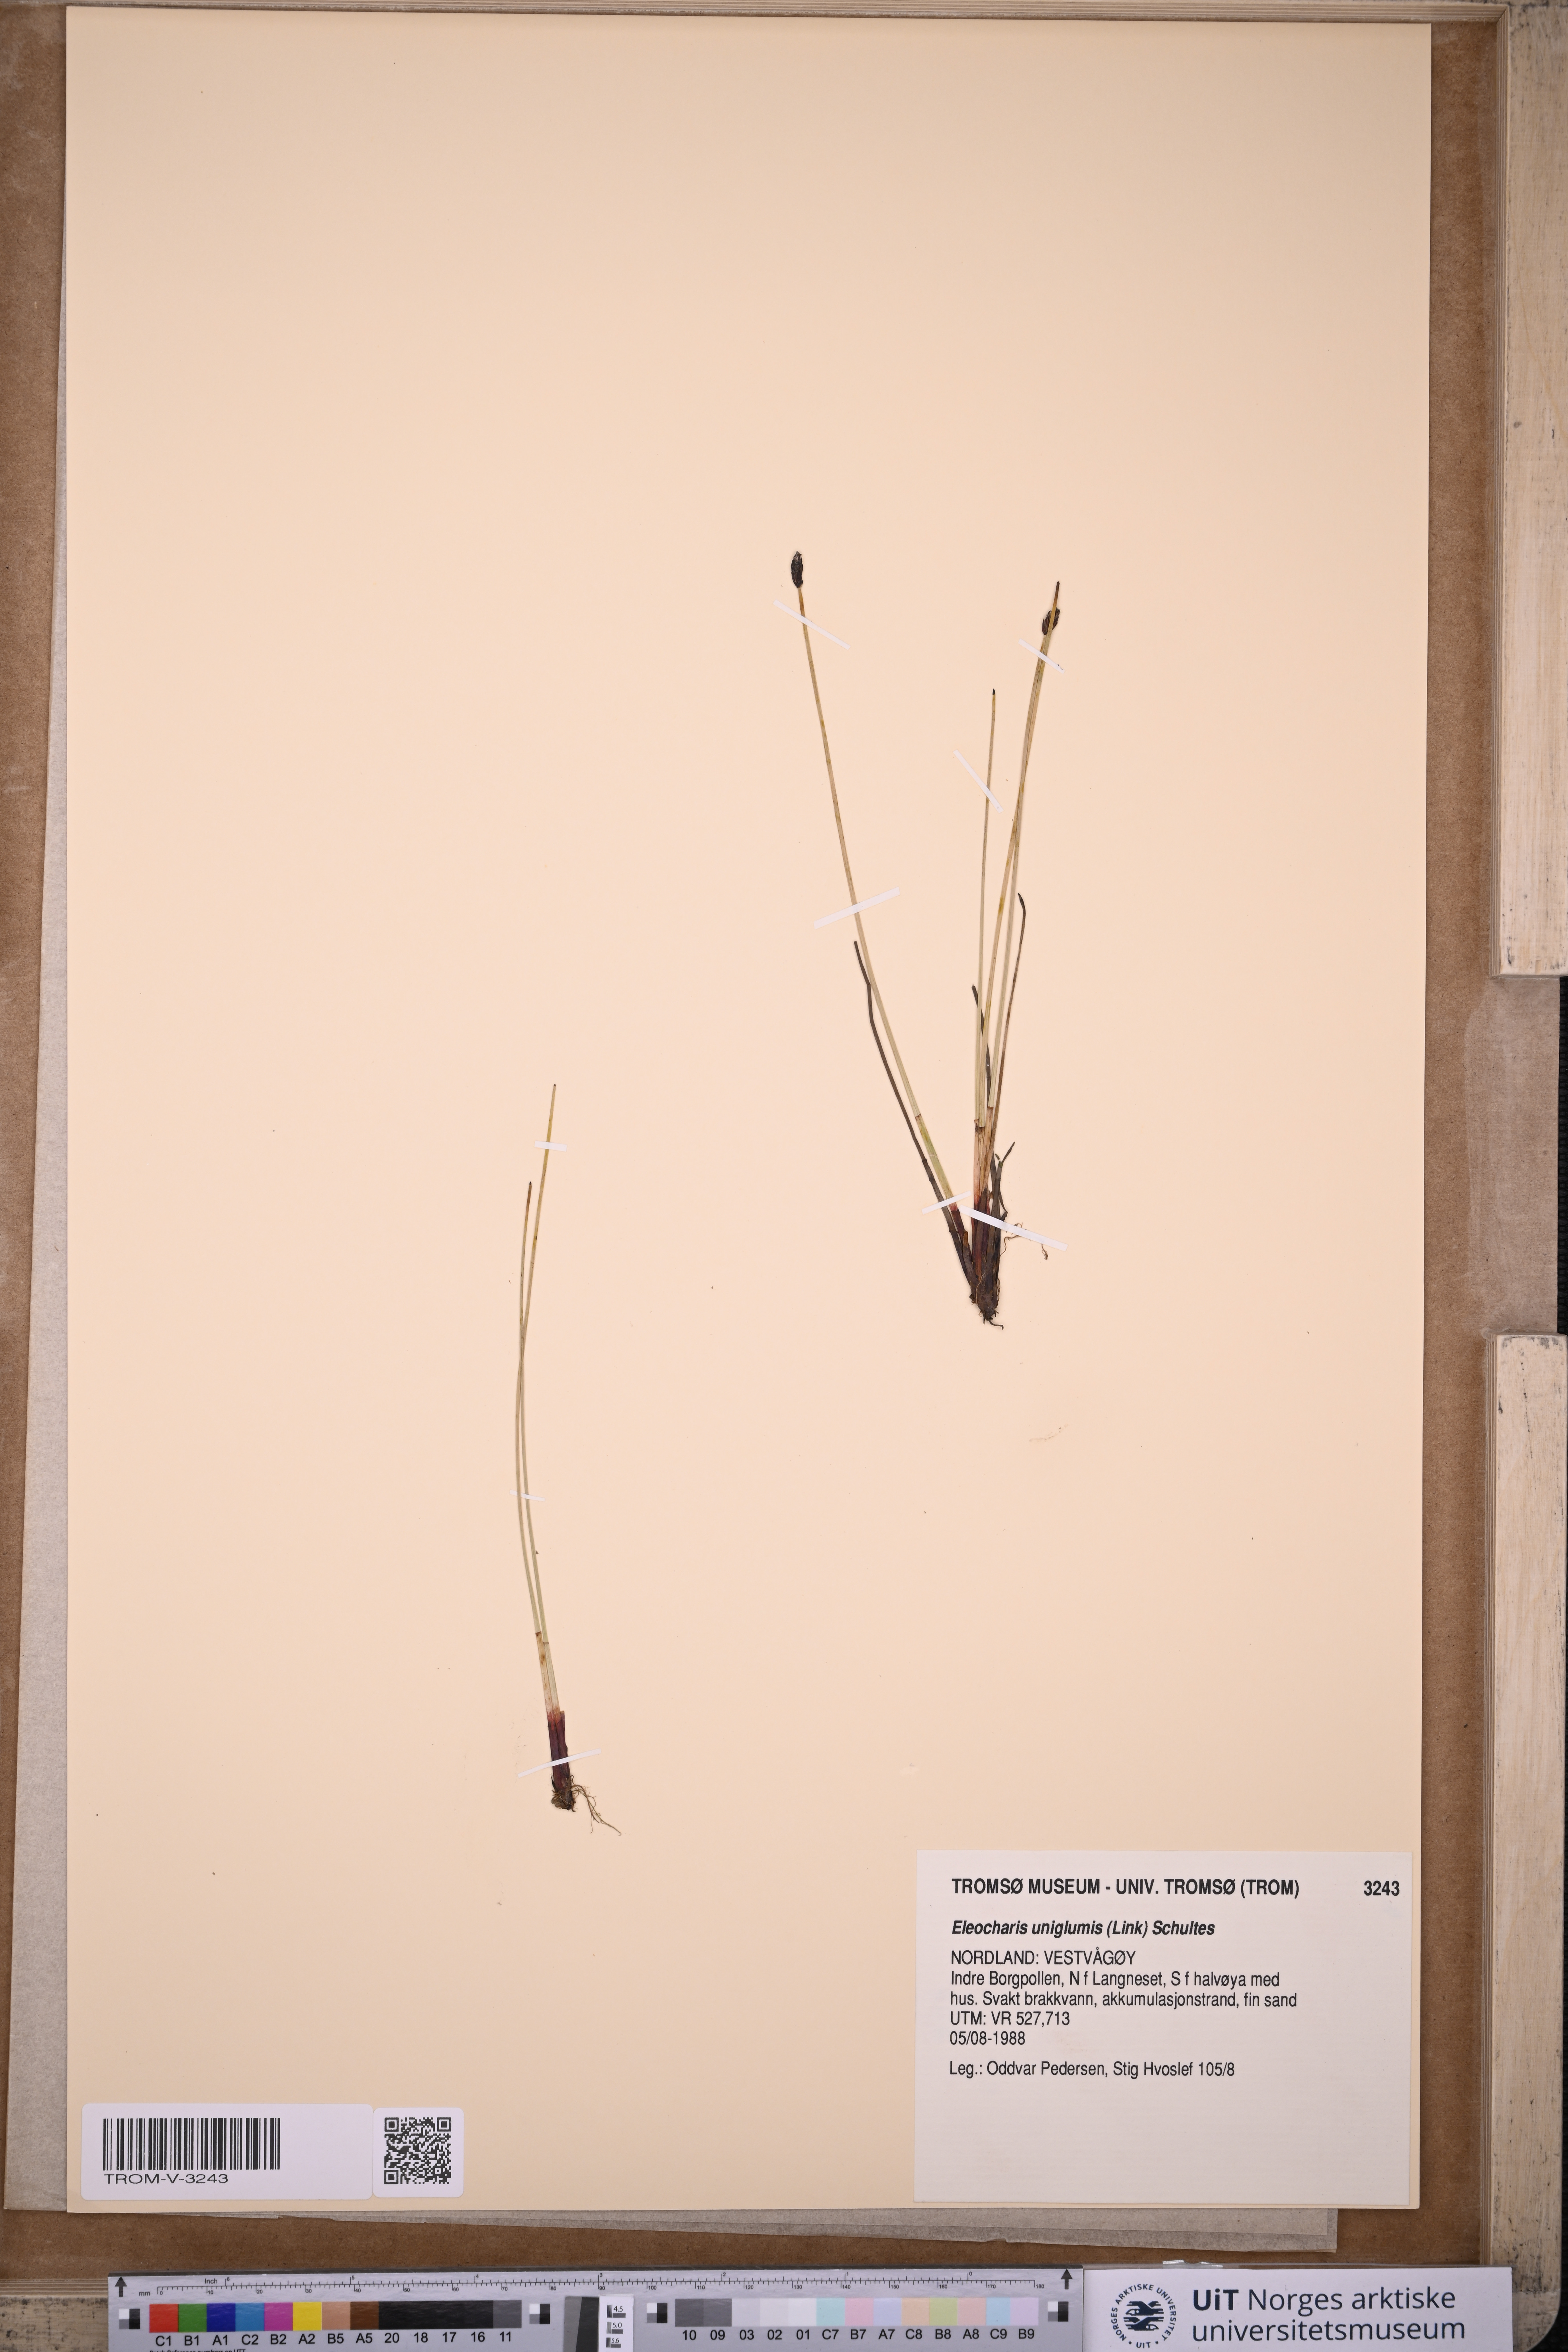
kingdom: Plantae
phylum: Tracheophyta
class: Liliopsida
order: Poales
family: Cyperaceae
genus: Eleocharis
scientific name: Eleocharis uniglumis
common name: Slender spike-rush
